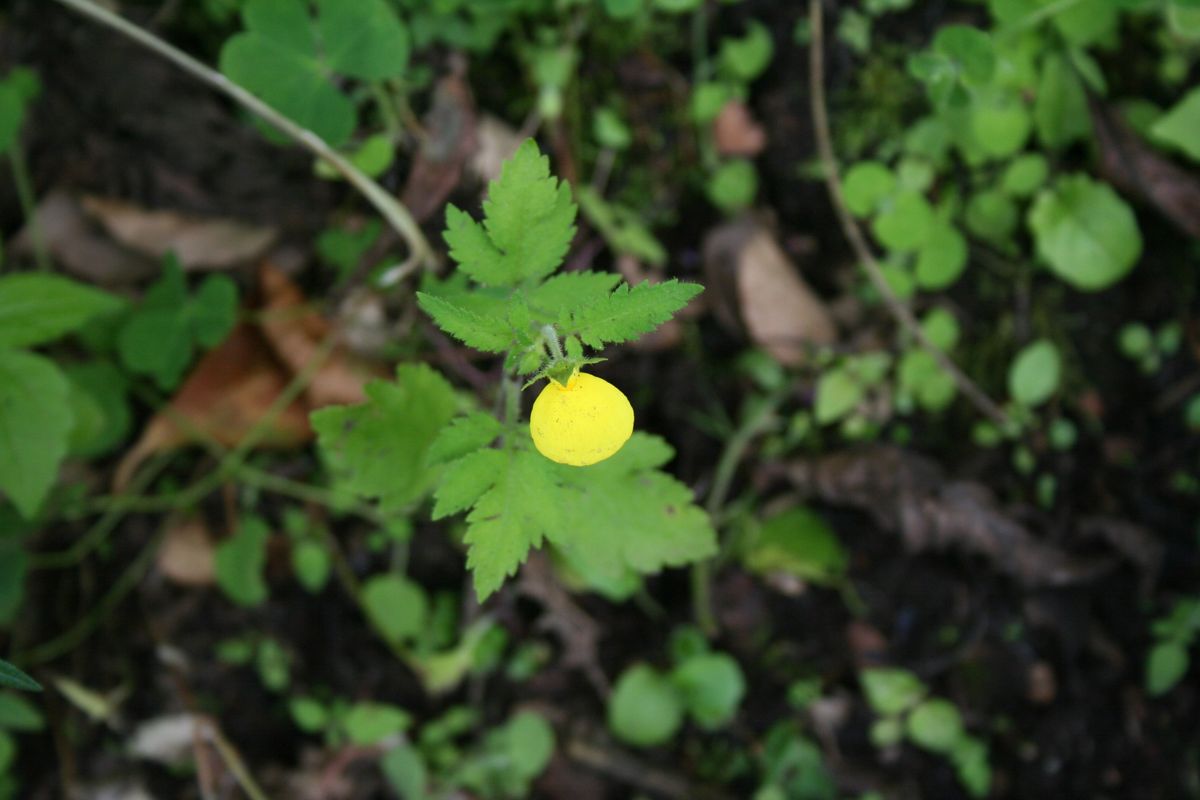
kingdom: Plantae
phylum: Tracheophyta
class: Magnoliopsida
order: Lamiales
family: Calceolariaceae
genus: Calceolaria
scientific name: Calceolaria mexicana
